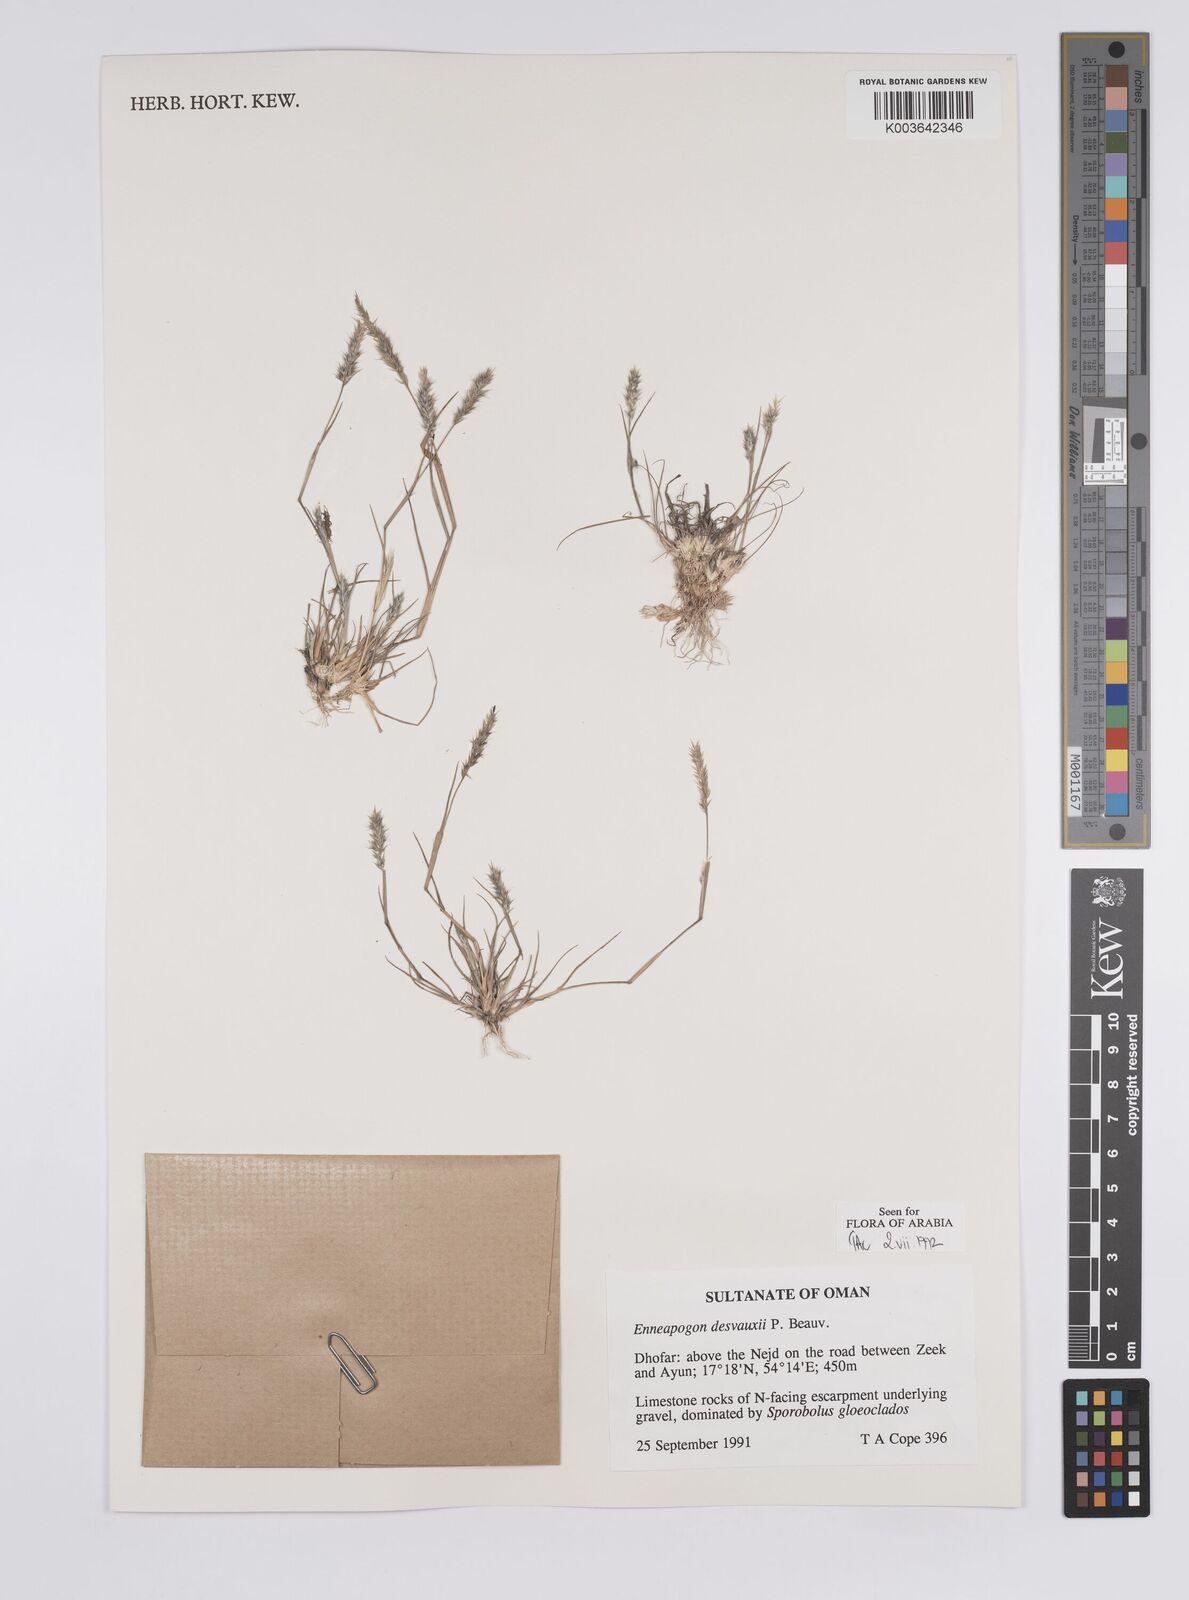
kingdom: Plantae
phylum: Tracheophyta
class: Liliopsida
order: Poales
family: Poaceae
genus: Enneapogon
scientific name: Enneapogon desvauxii
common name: Feather pappus grass
